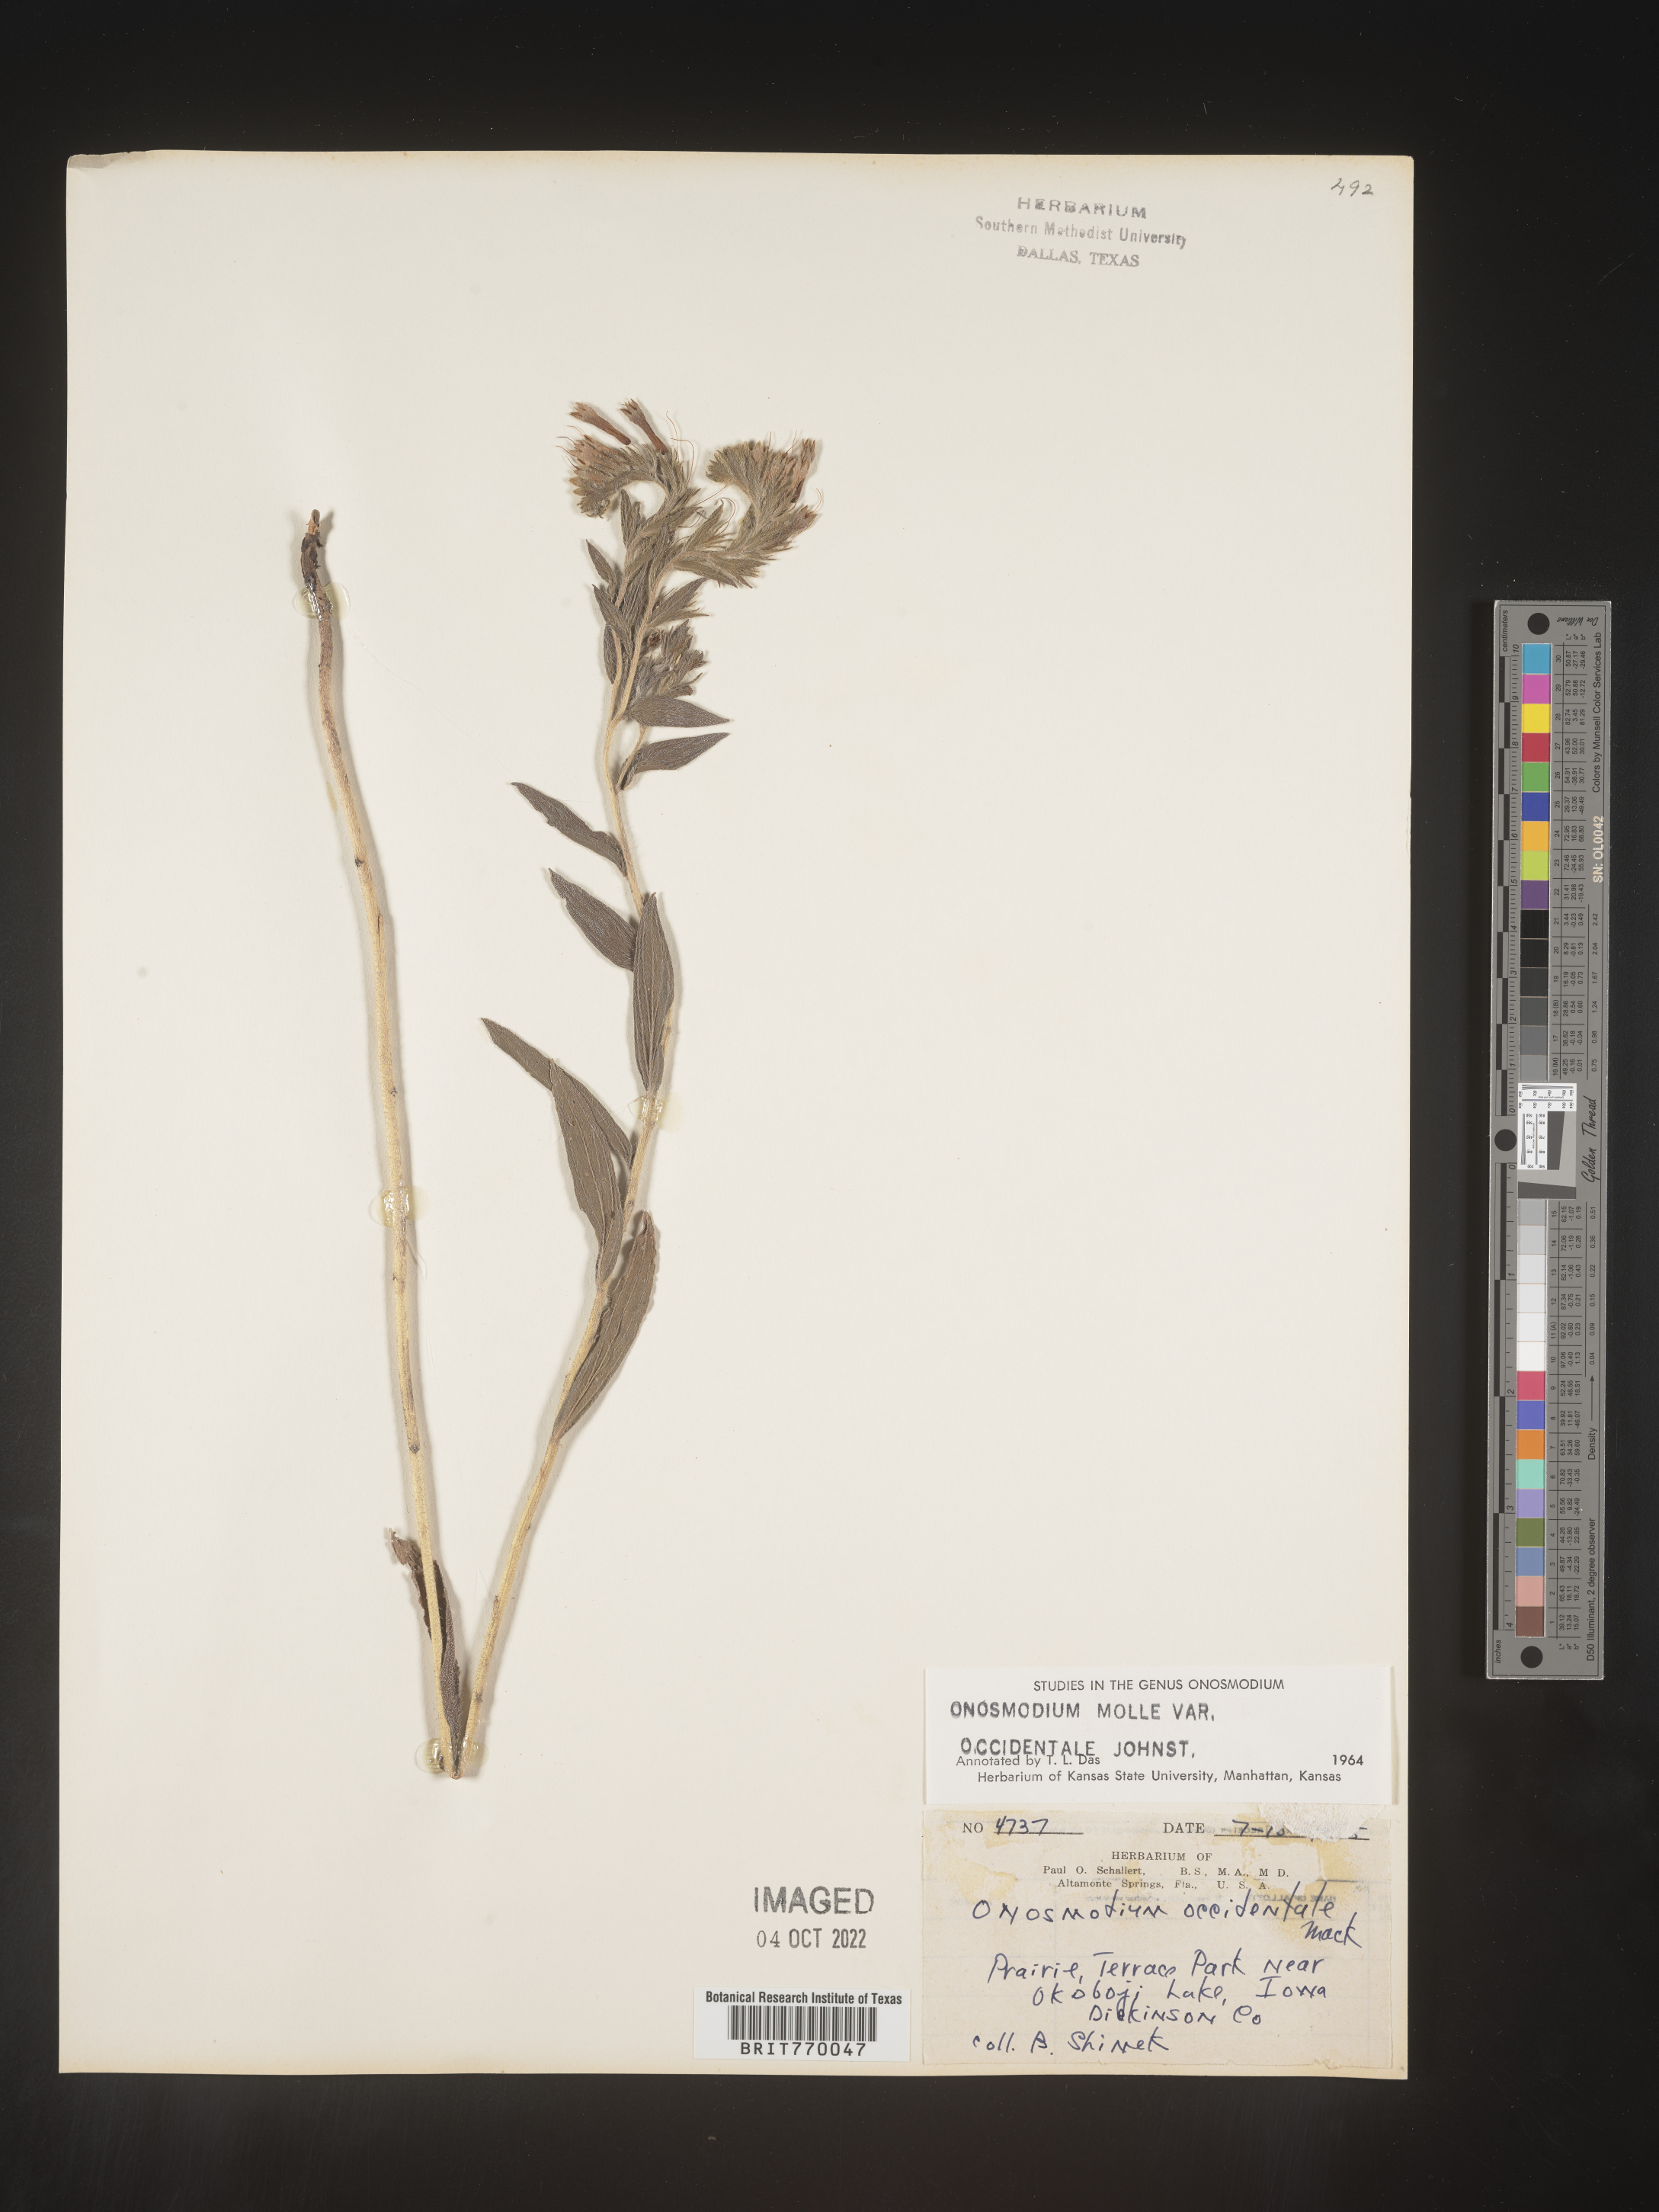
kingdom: Plantae
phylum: Tracheophyta
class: Magnoliopsida
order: Boraginales
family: Boraginaceae
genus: Lithospermum
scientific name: Lithospermum occidentale
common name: Western false gromwell
